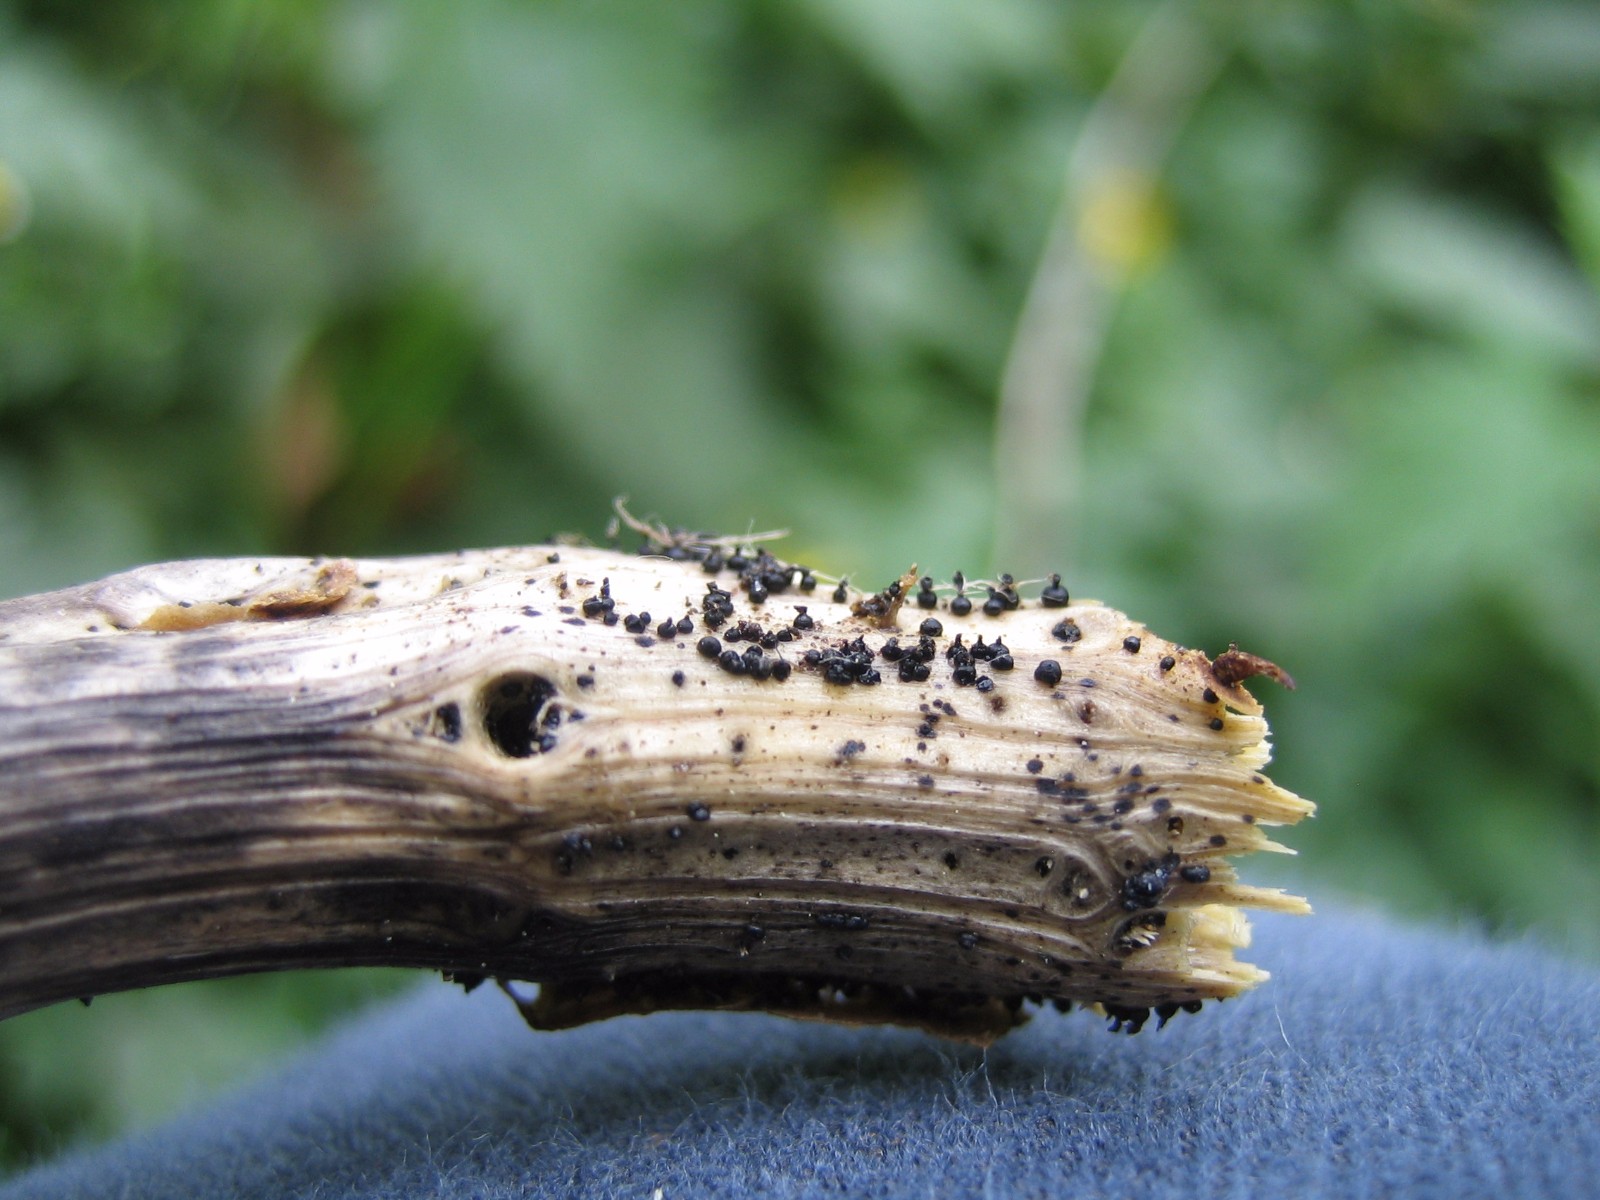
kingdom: Fungi
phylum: Ascomycota
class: Dothideomycetes
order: Pleosporales
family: Leptosphaeriaceae
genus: Leptosphaeria
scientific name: Leptosphaeria acuta
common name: spids kulkegle
